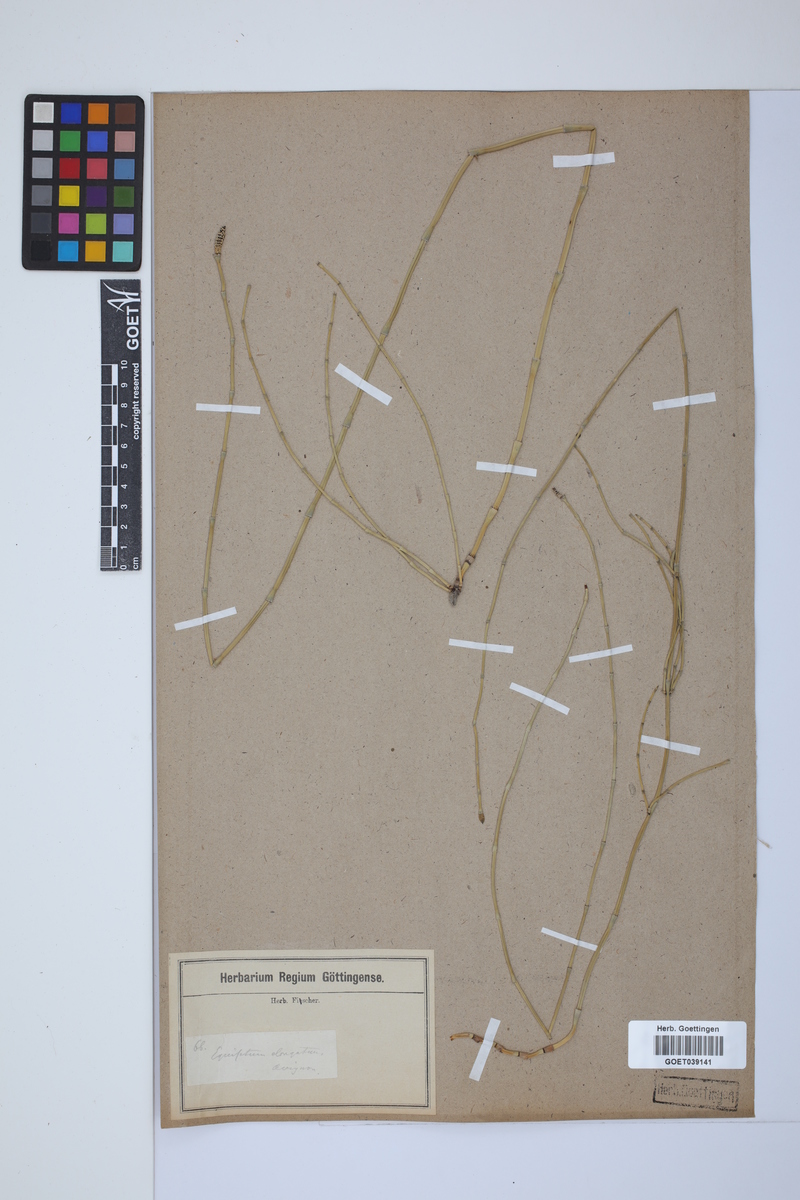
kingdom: Plantae
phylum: Tracheophyta
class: Polypodiopsida
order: Equisetales
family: Equisetaceae
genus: Equisetum
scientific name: Equisetum giganteum
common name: Giant horsetail
